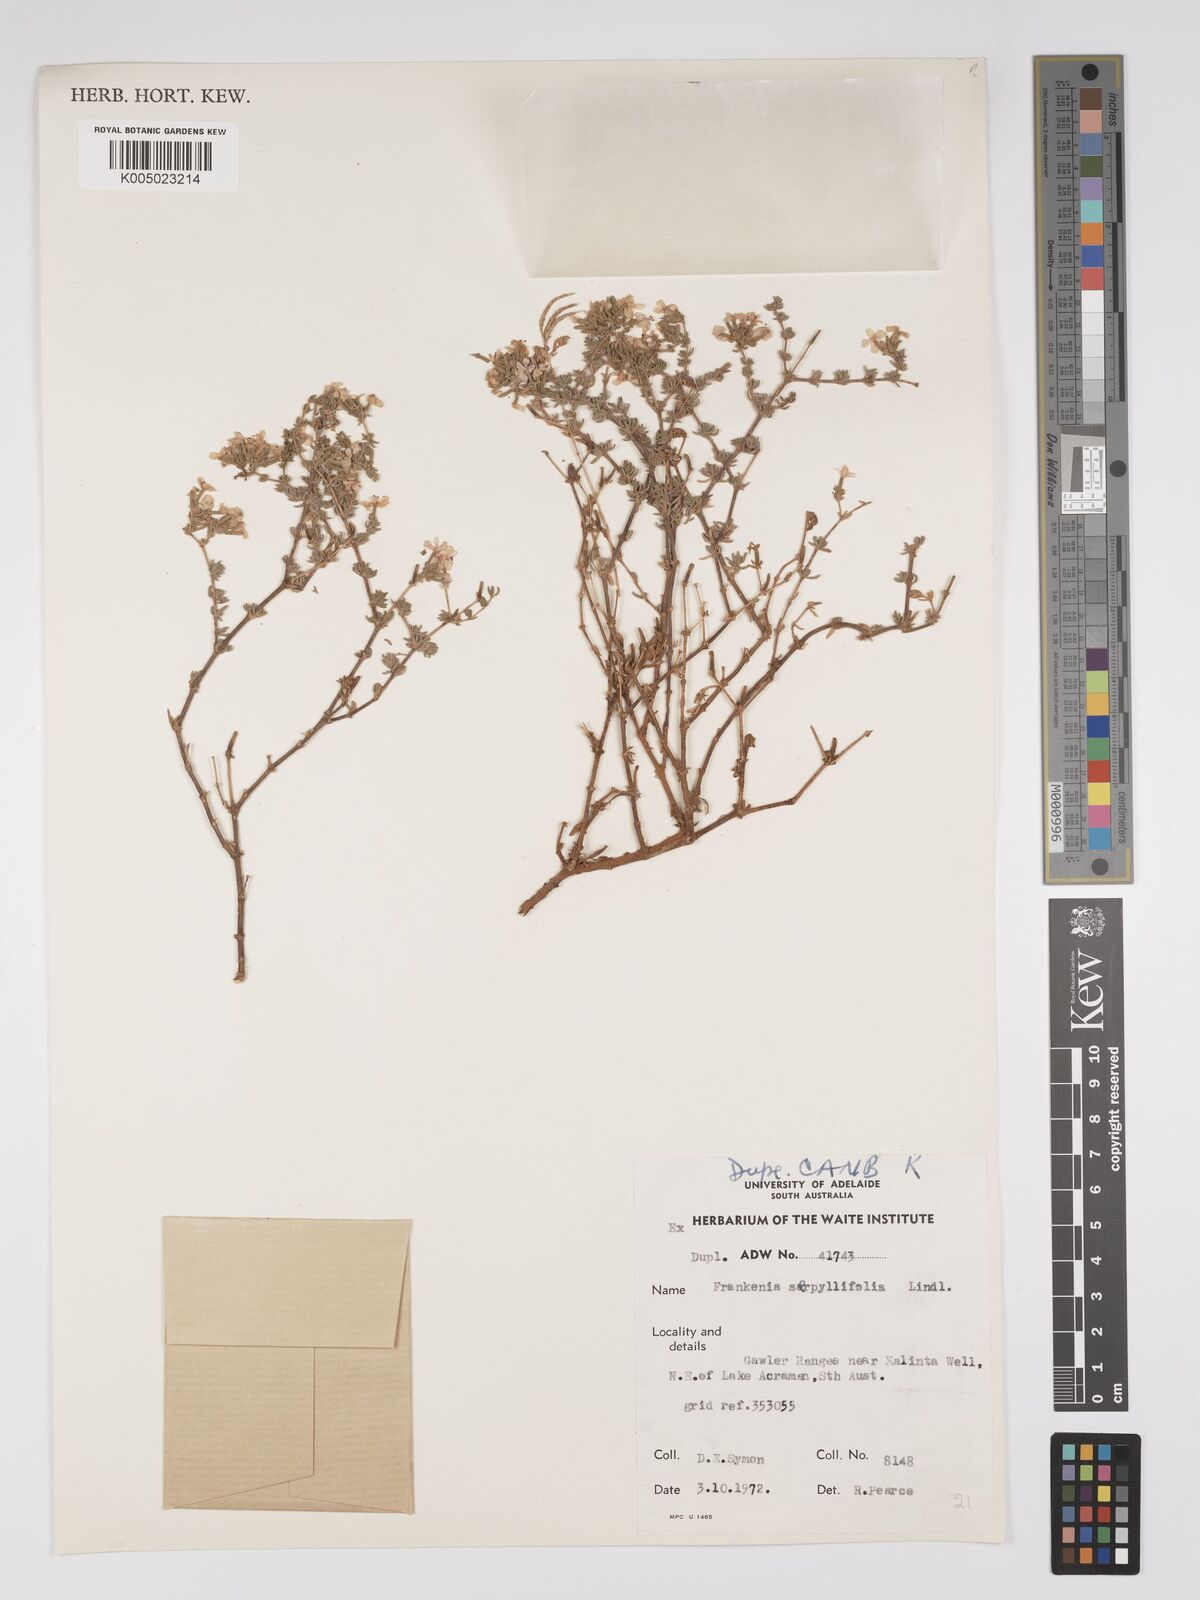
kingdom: Plantae
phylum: Tracheophyta
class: Magnoliopsida
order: Caryophyllales
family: Frankeniaceae
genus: Frankenia
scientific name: Frankenia serpyllifolia
